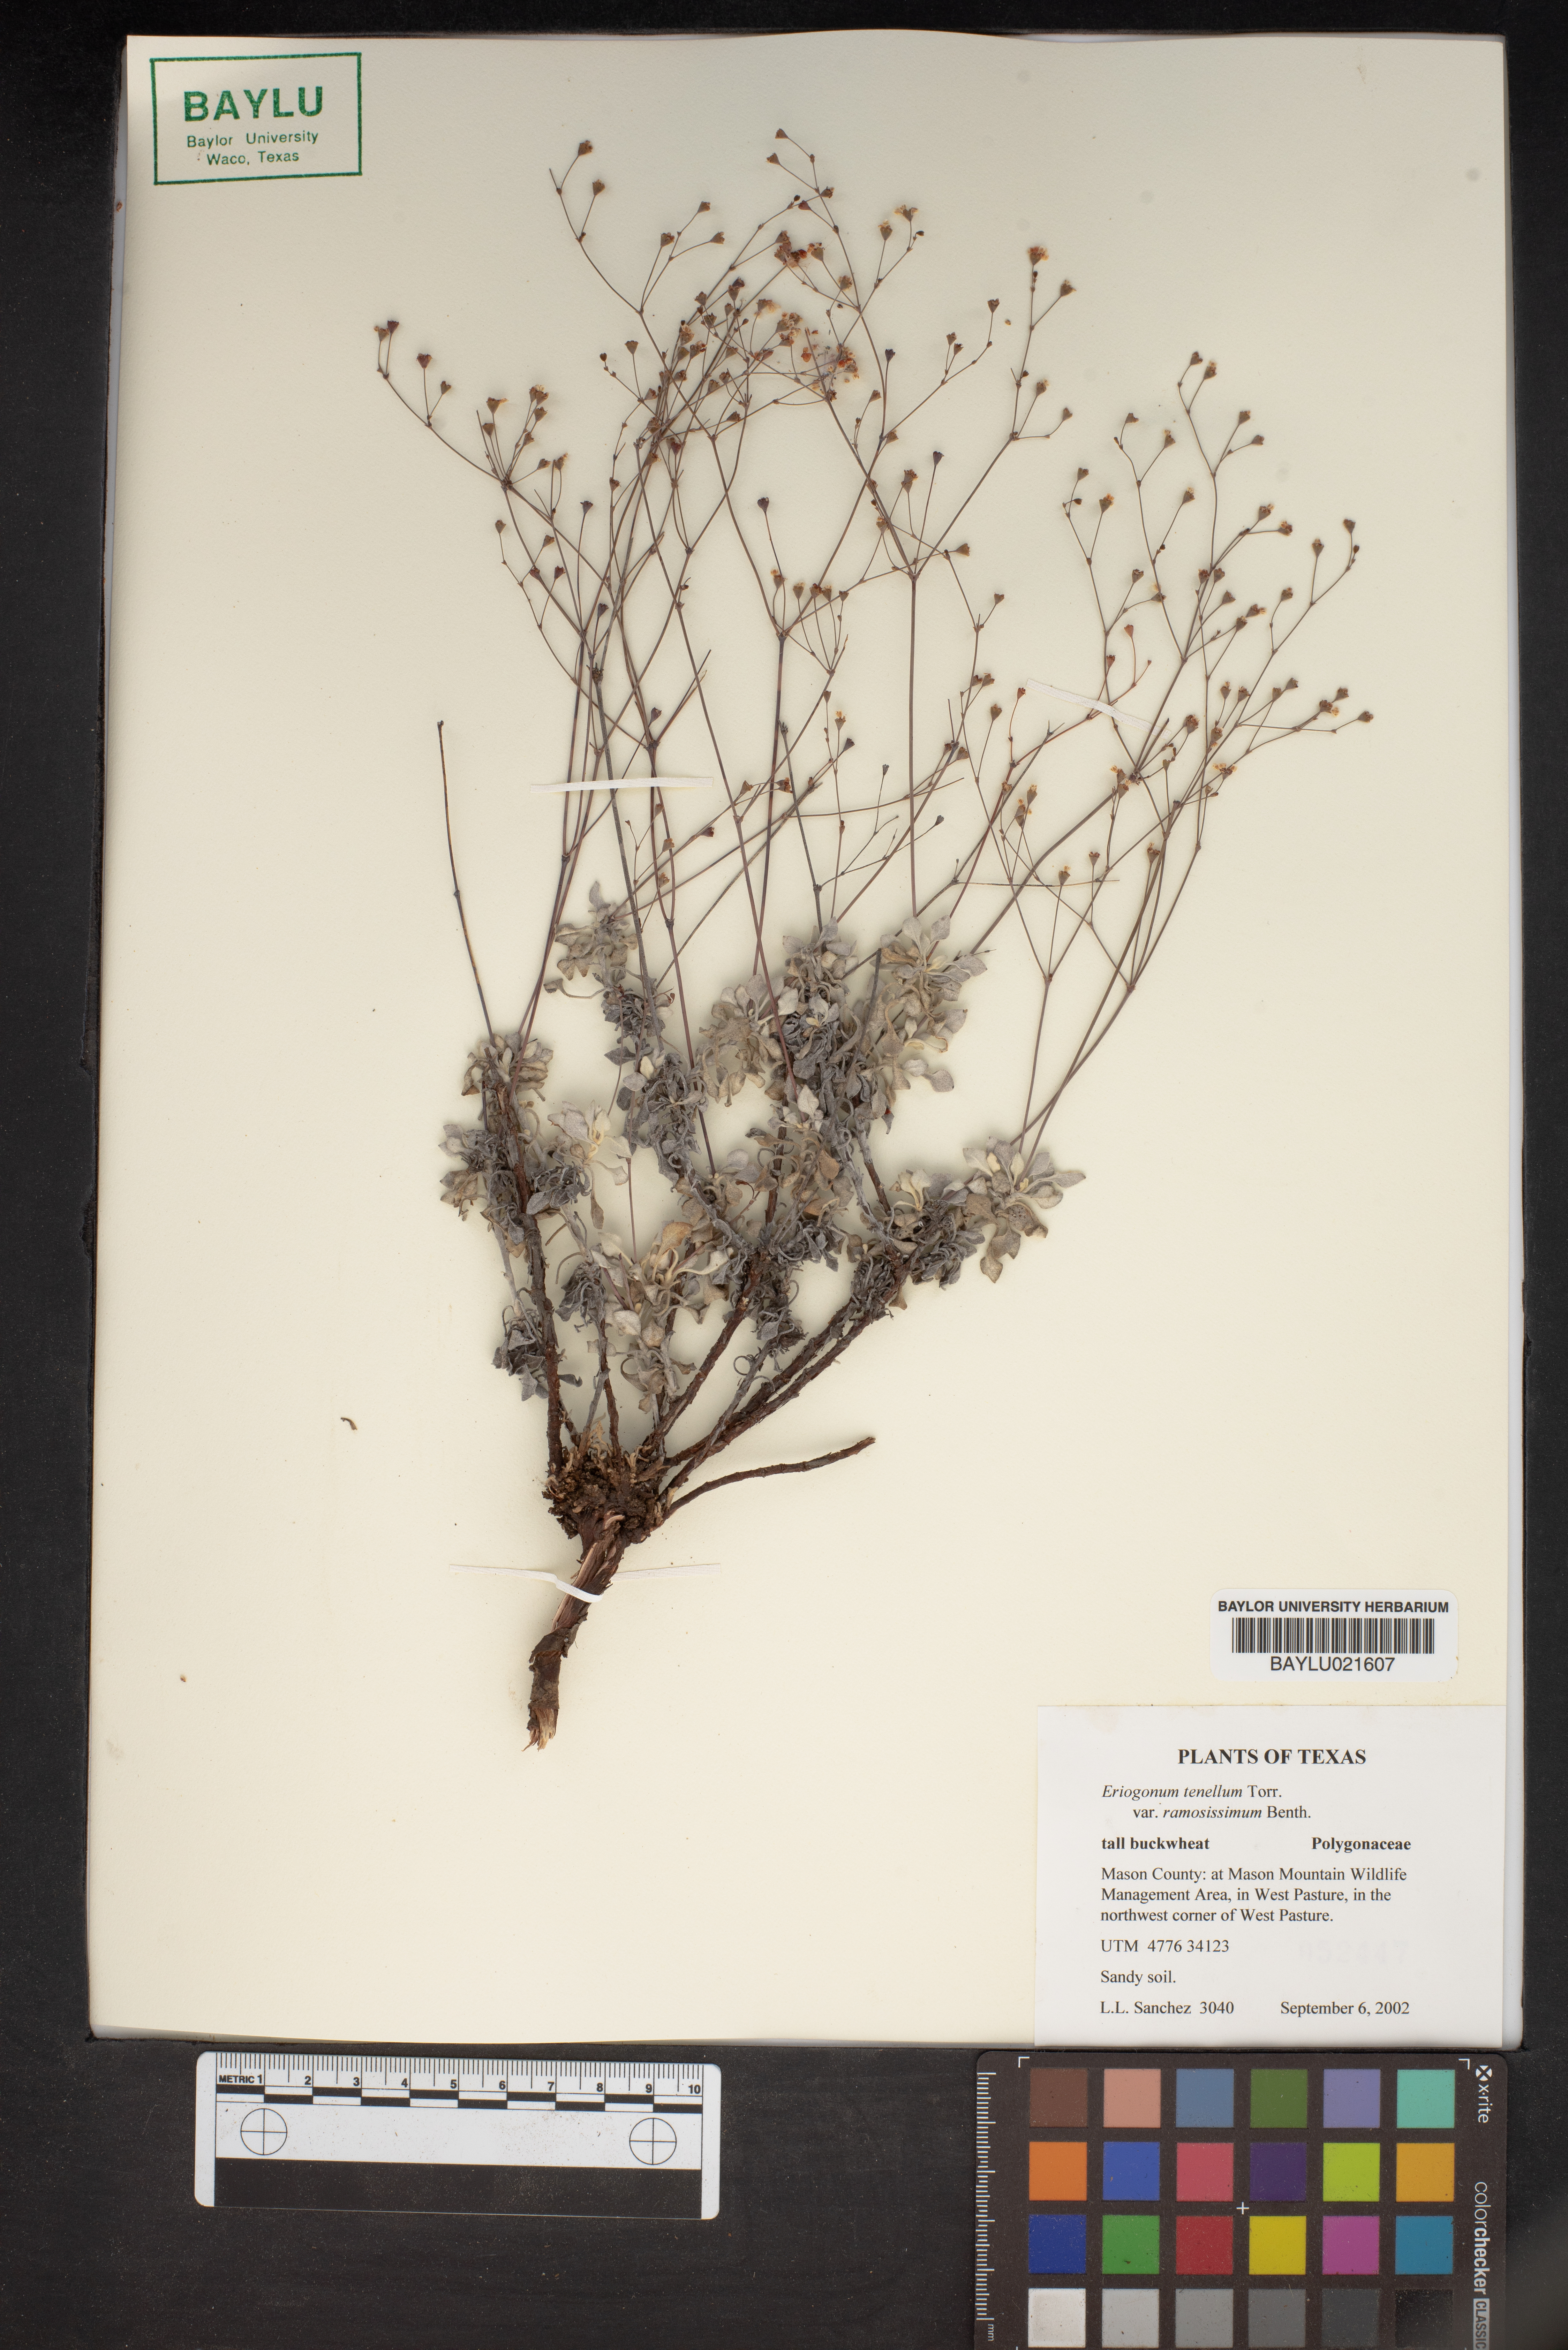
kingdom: Plantae
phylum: Tracheophyta
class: Magnoliopsida
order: Caryophyllales
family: Polygonaceae
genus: Eriogonum
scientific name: Eriogonum graniticum
